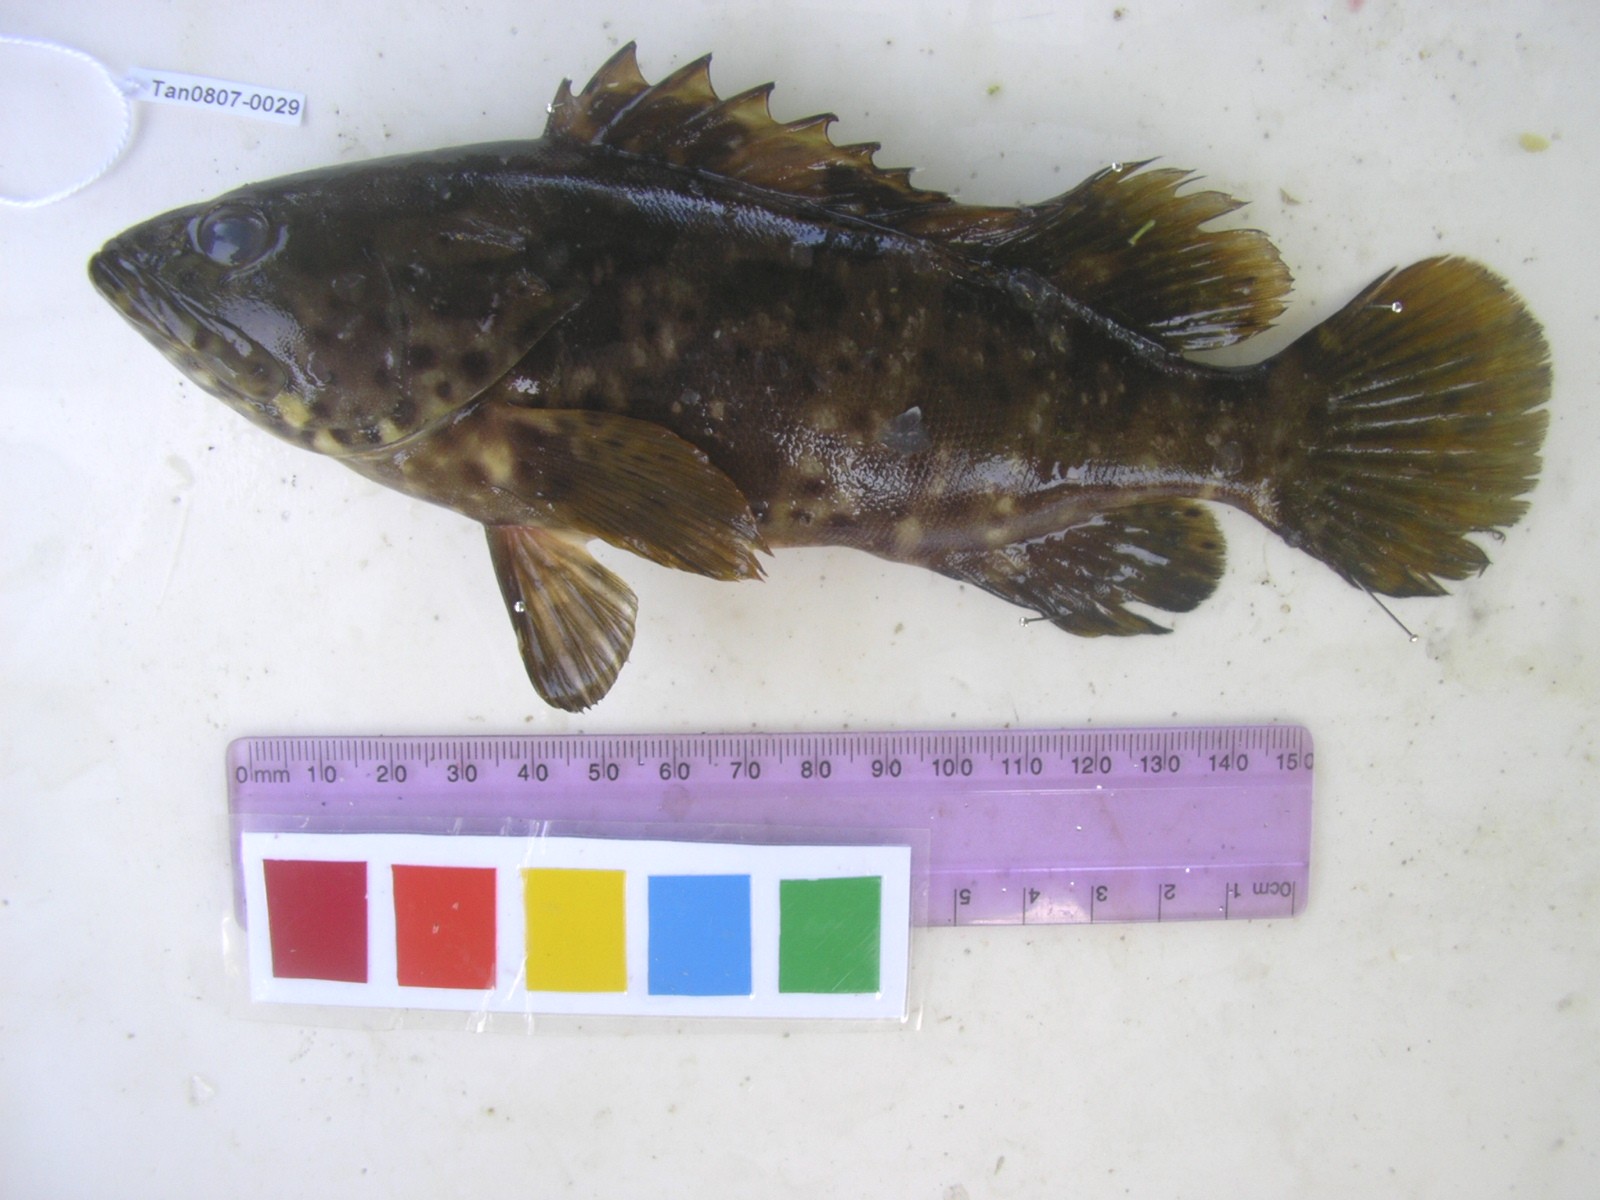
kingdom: Animalia
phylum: Chordata
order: Perciformes
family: Serranidae
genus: Epinephelus
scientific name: Epinephelus malabaricus
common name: Malabar grouper
